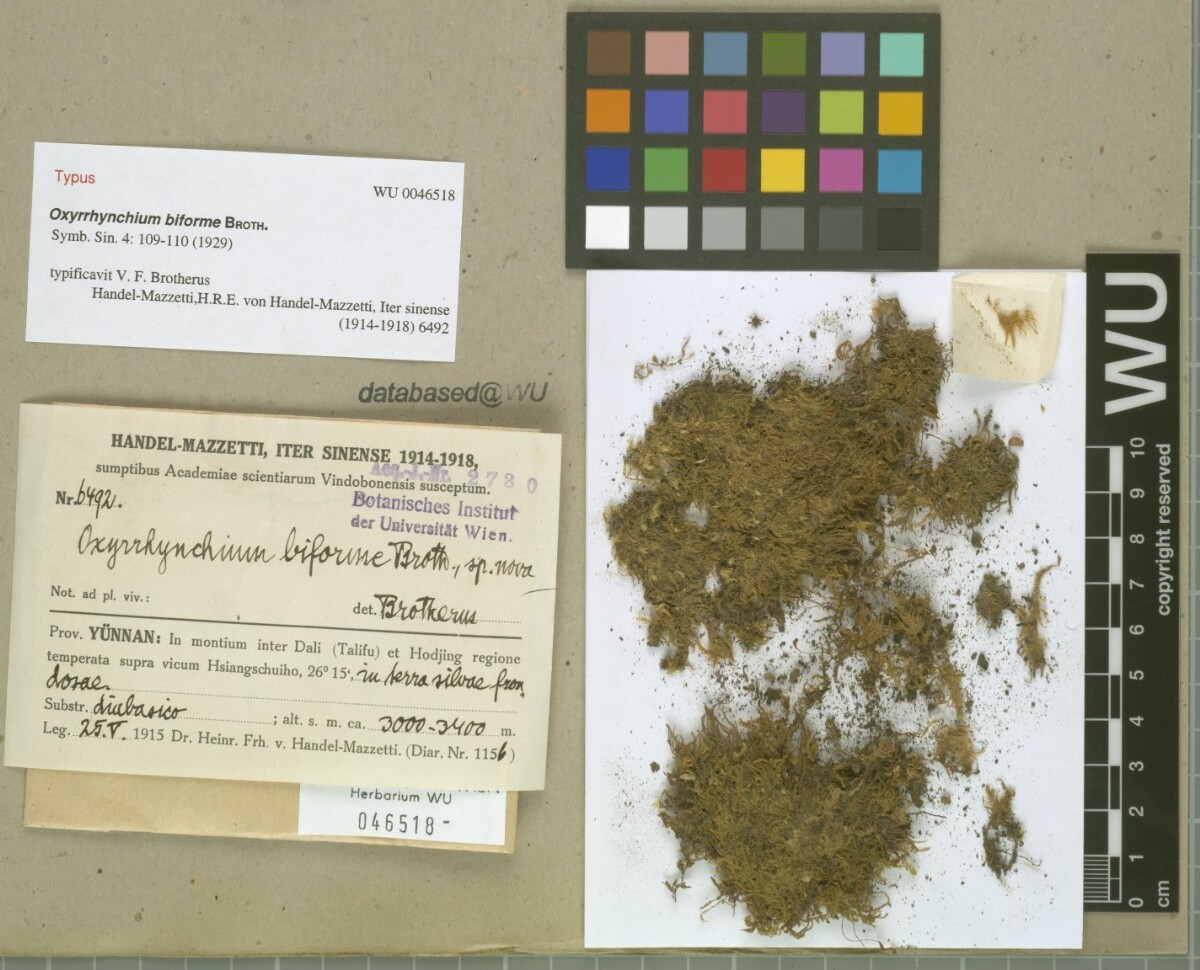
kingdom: Plantae
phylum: Bryophyta
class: Bryopsida
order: Hypnales
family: Brachytheciaceae
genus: Kindbergia
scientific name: Kindbergia praelonga
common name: Slender beaked moss
